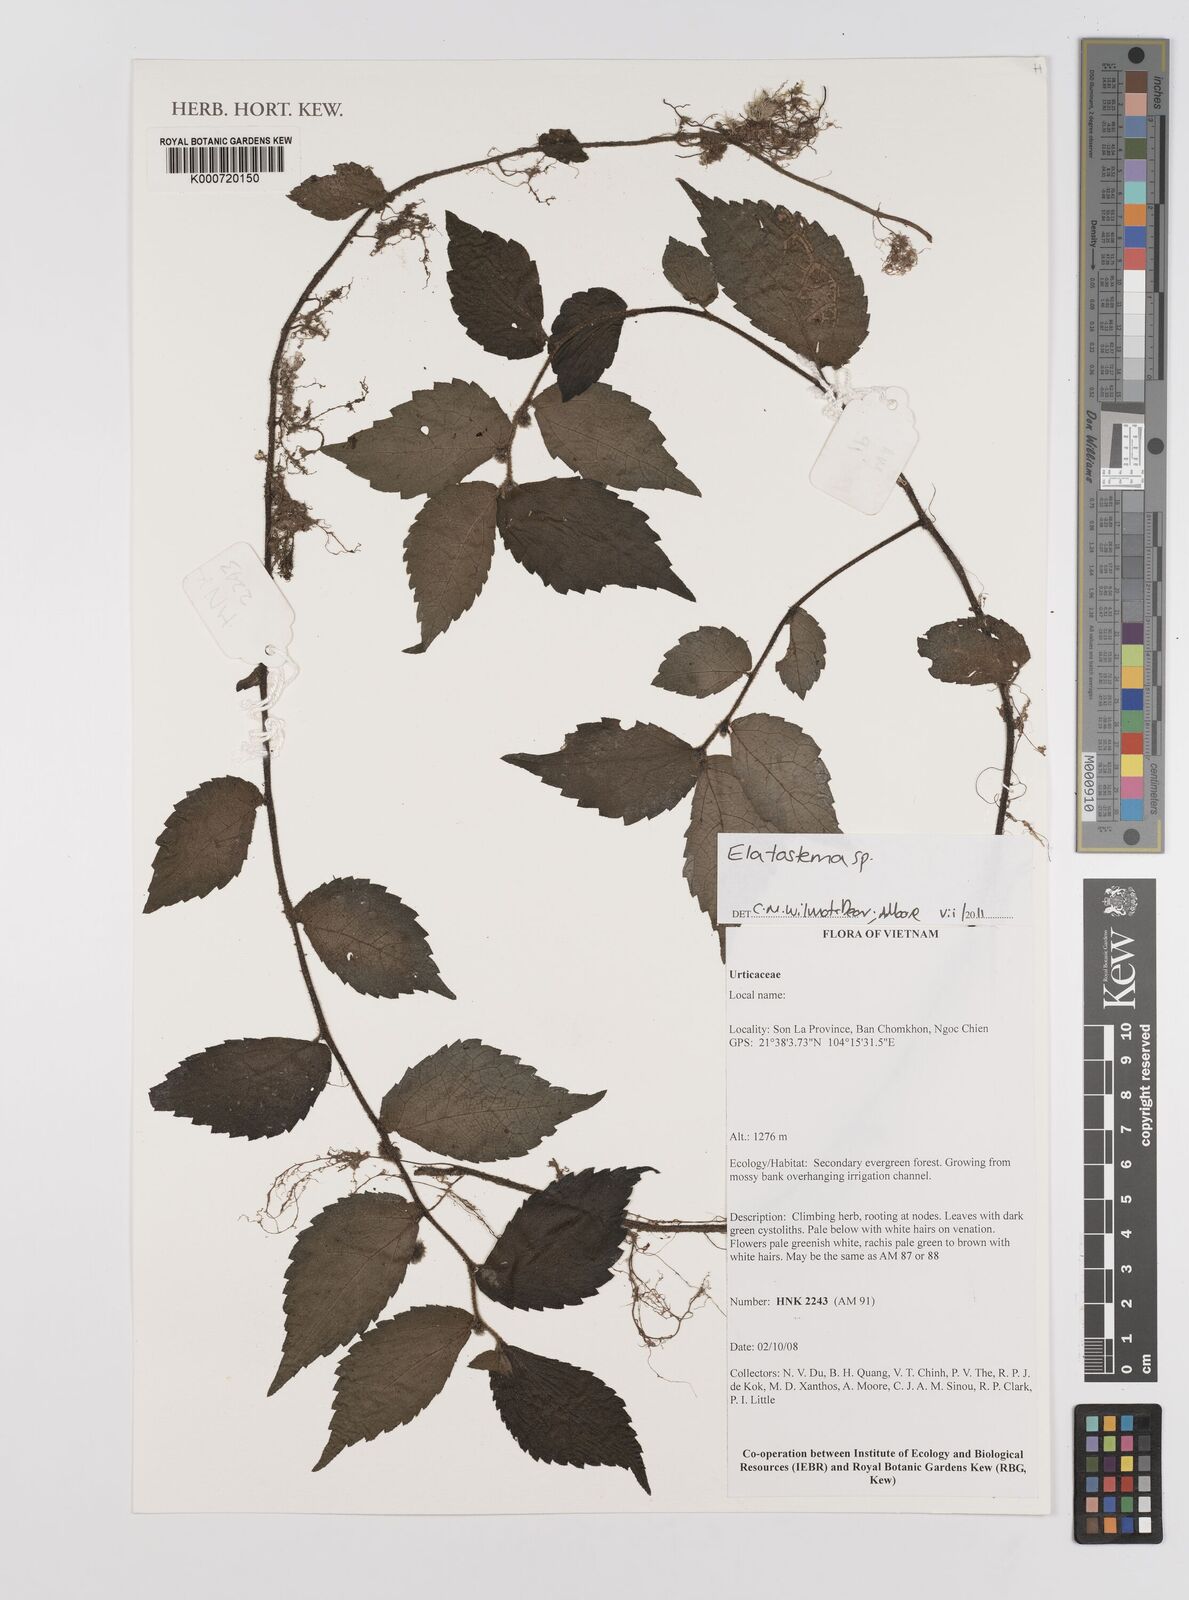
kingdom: Plantae
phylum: Tracheophyta
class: Magnoliopsida
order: Rosales
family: Urticaceae
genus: Elatostema
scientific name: Elatostema
